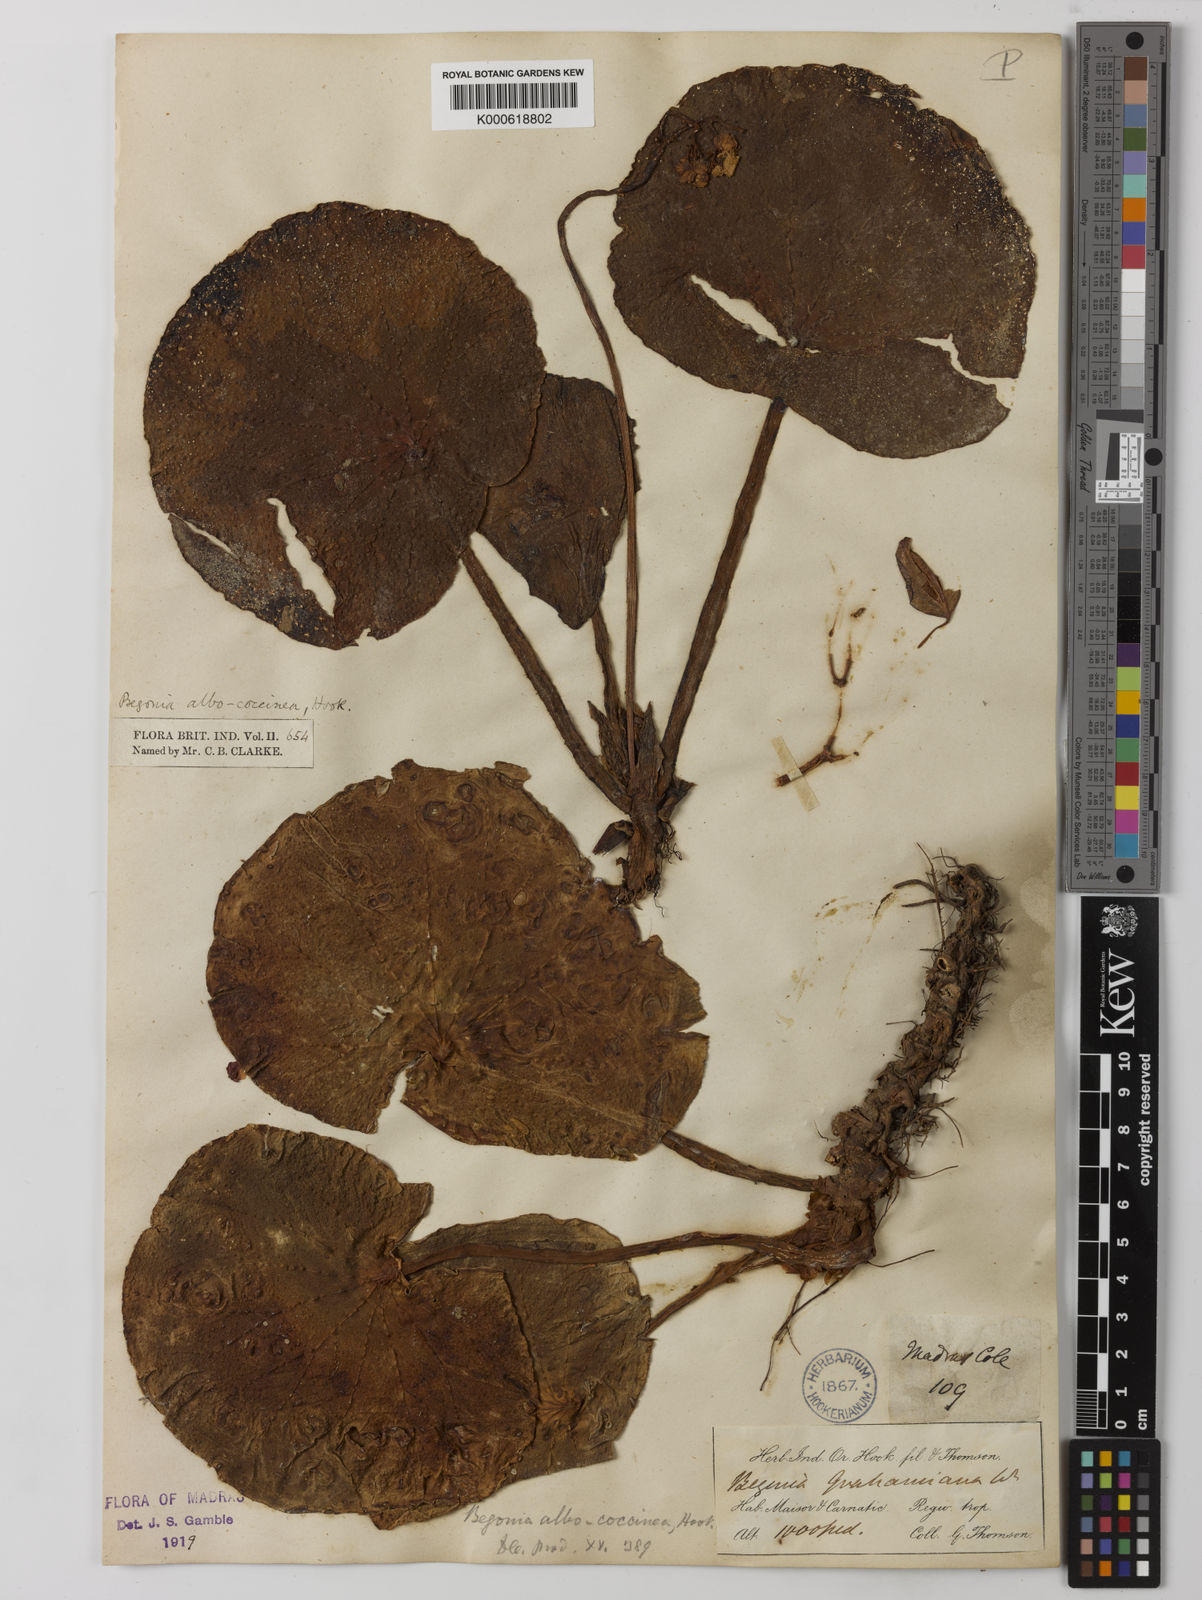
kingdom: Plantae
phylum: Tracheophyta
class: Magnoliopsida
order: Cucurbitales
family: Begoniaceae
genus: Begonia
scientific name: Begonia albococcinea
